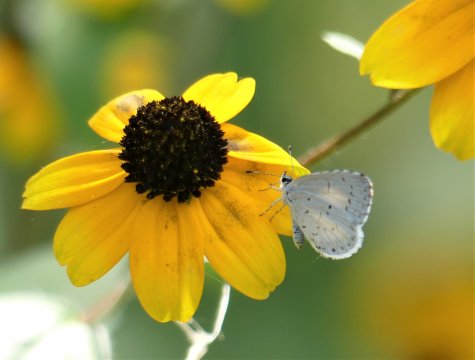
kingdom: Animalia
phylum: Arthropoda
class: Insecta
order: Lepidoptera
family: Lycaenidae
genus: Cyaniris
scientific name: Cyaniris neglecta
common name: Summer Azure
